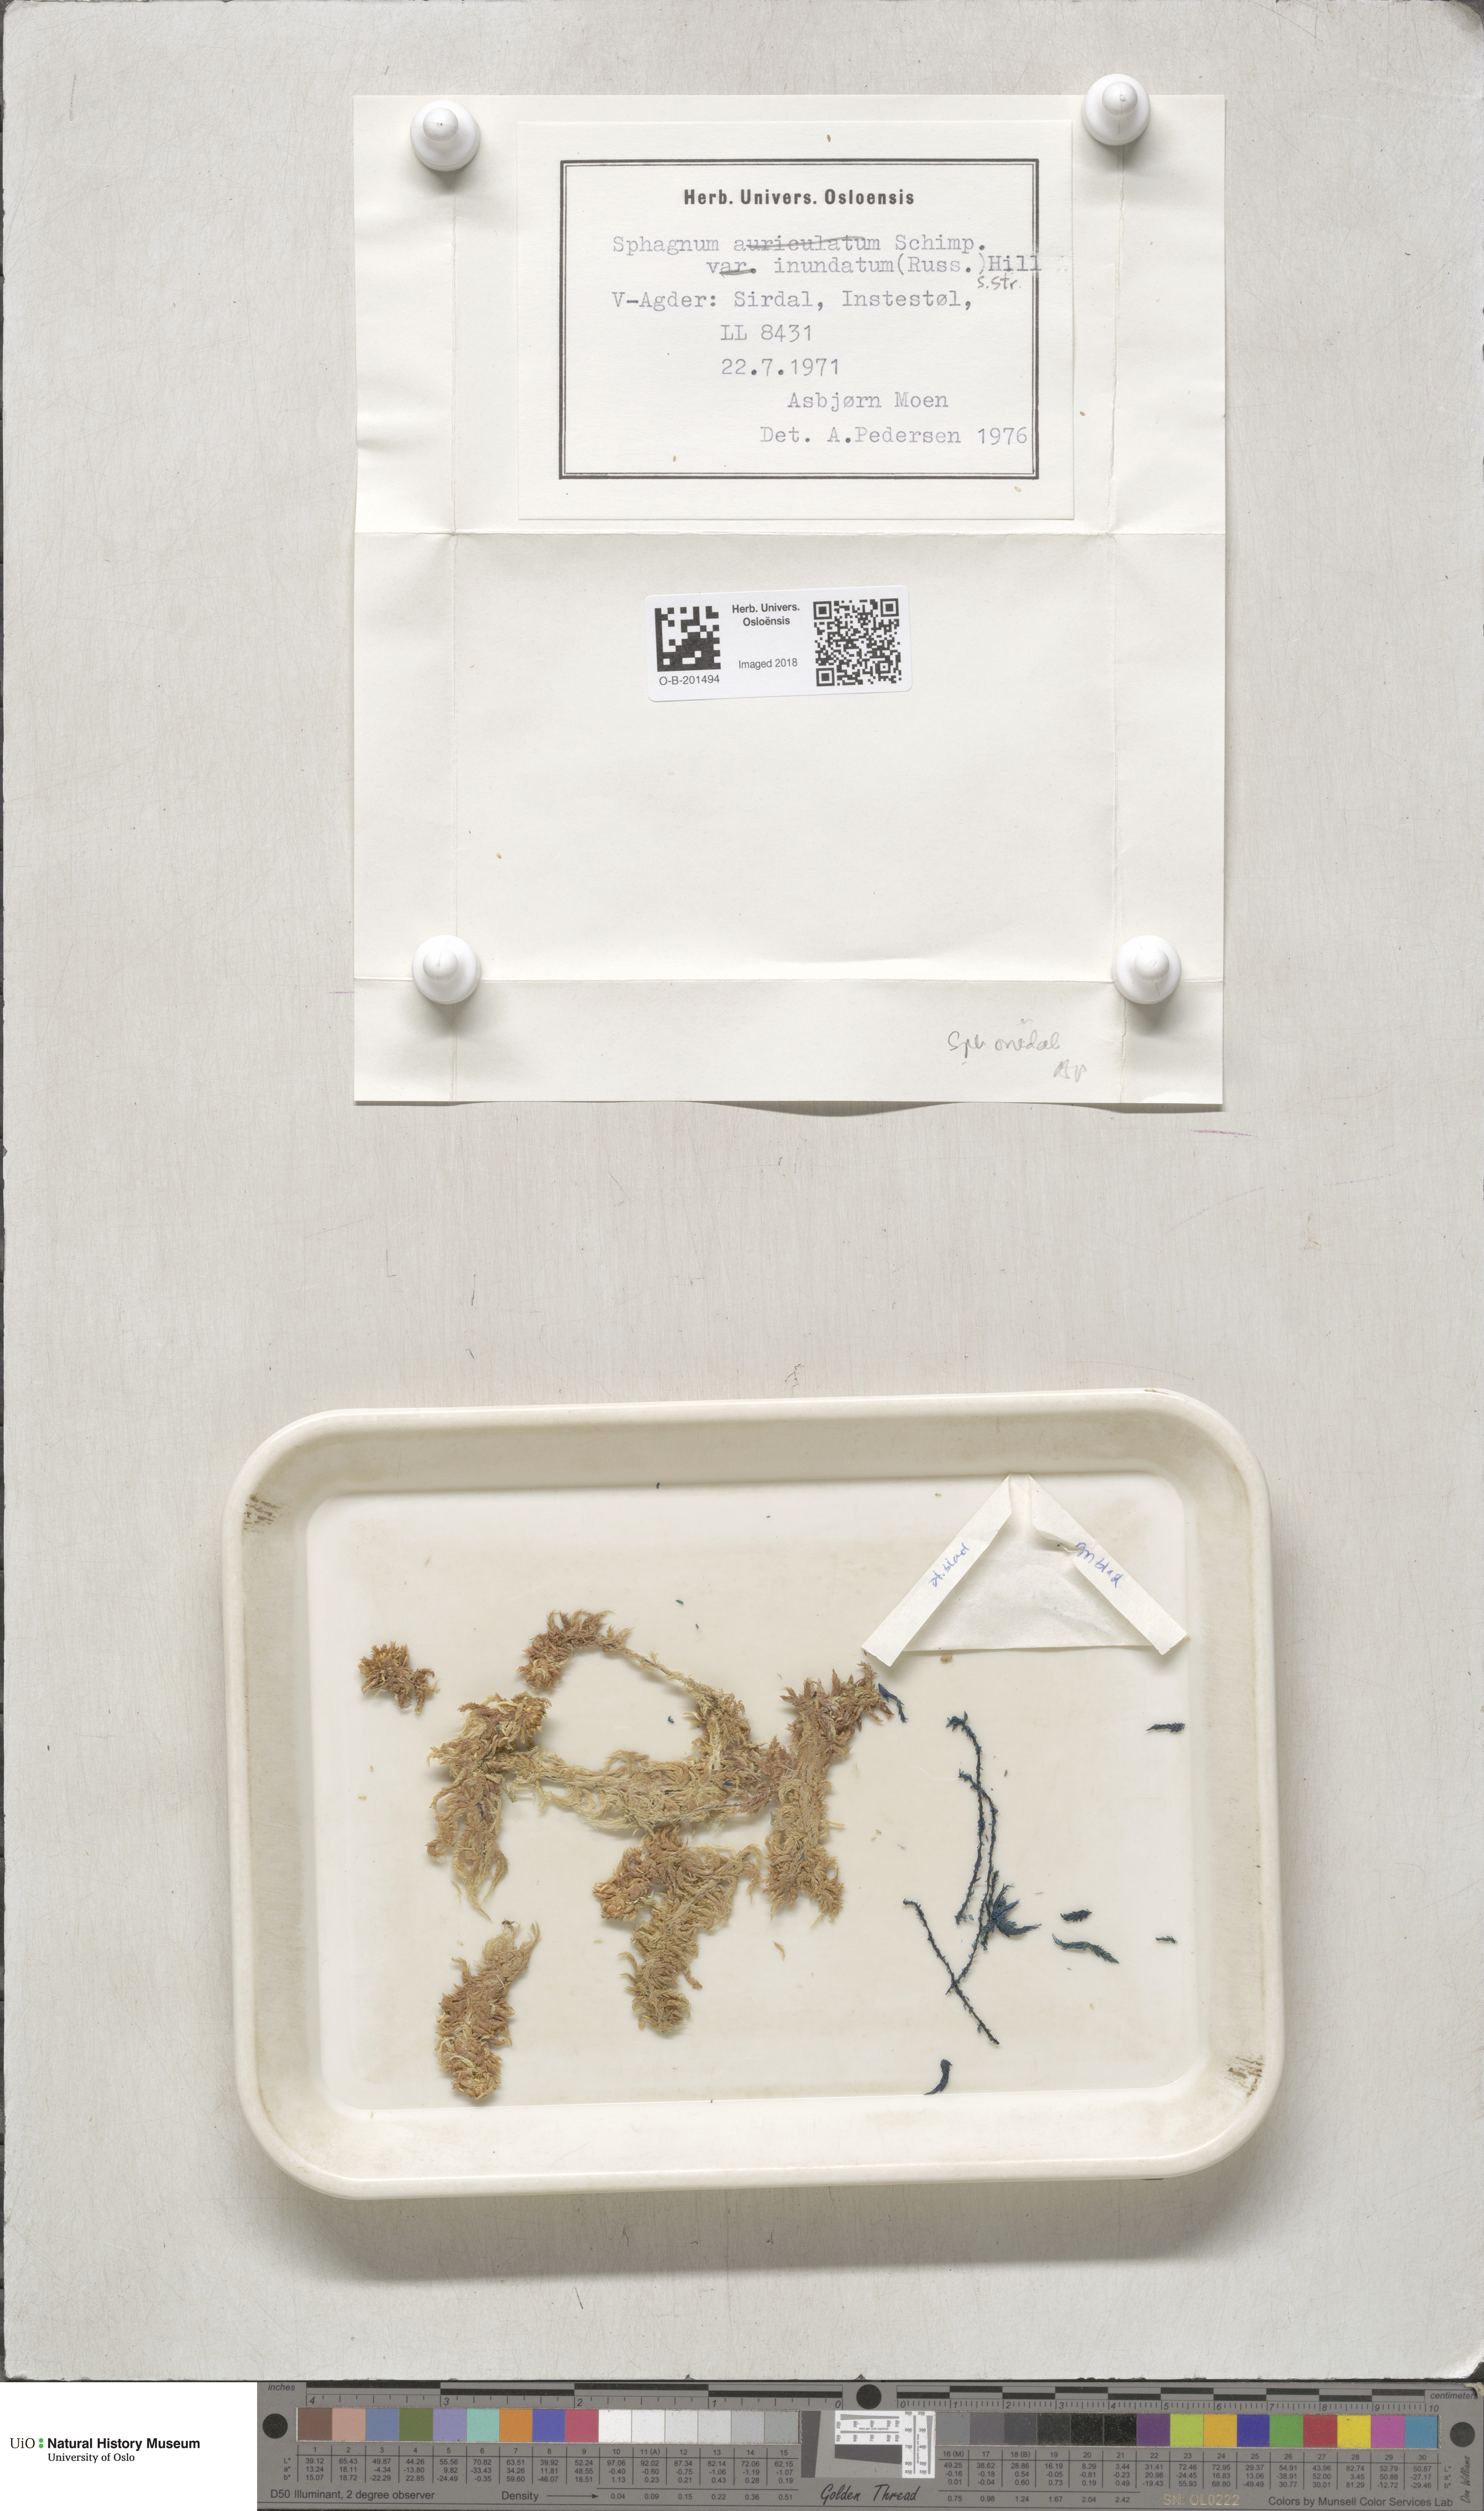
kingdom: Plantae
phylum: Bryophyta
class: Sphagnopsida
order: Sphagnales
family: Sphagnaceae
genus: Sphagnum
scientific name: Sphagnum inundatum
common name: Lesser cow-horn bog-moss
